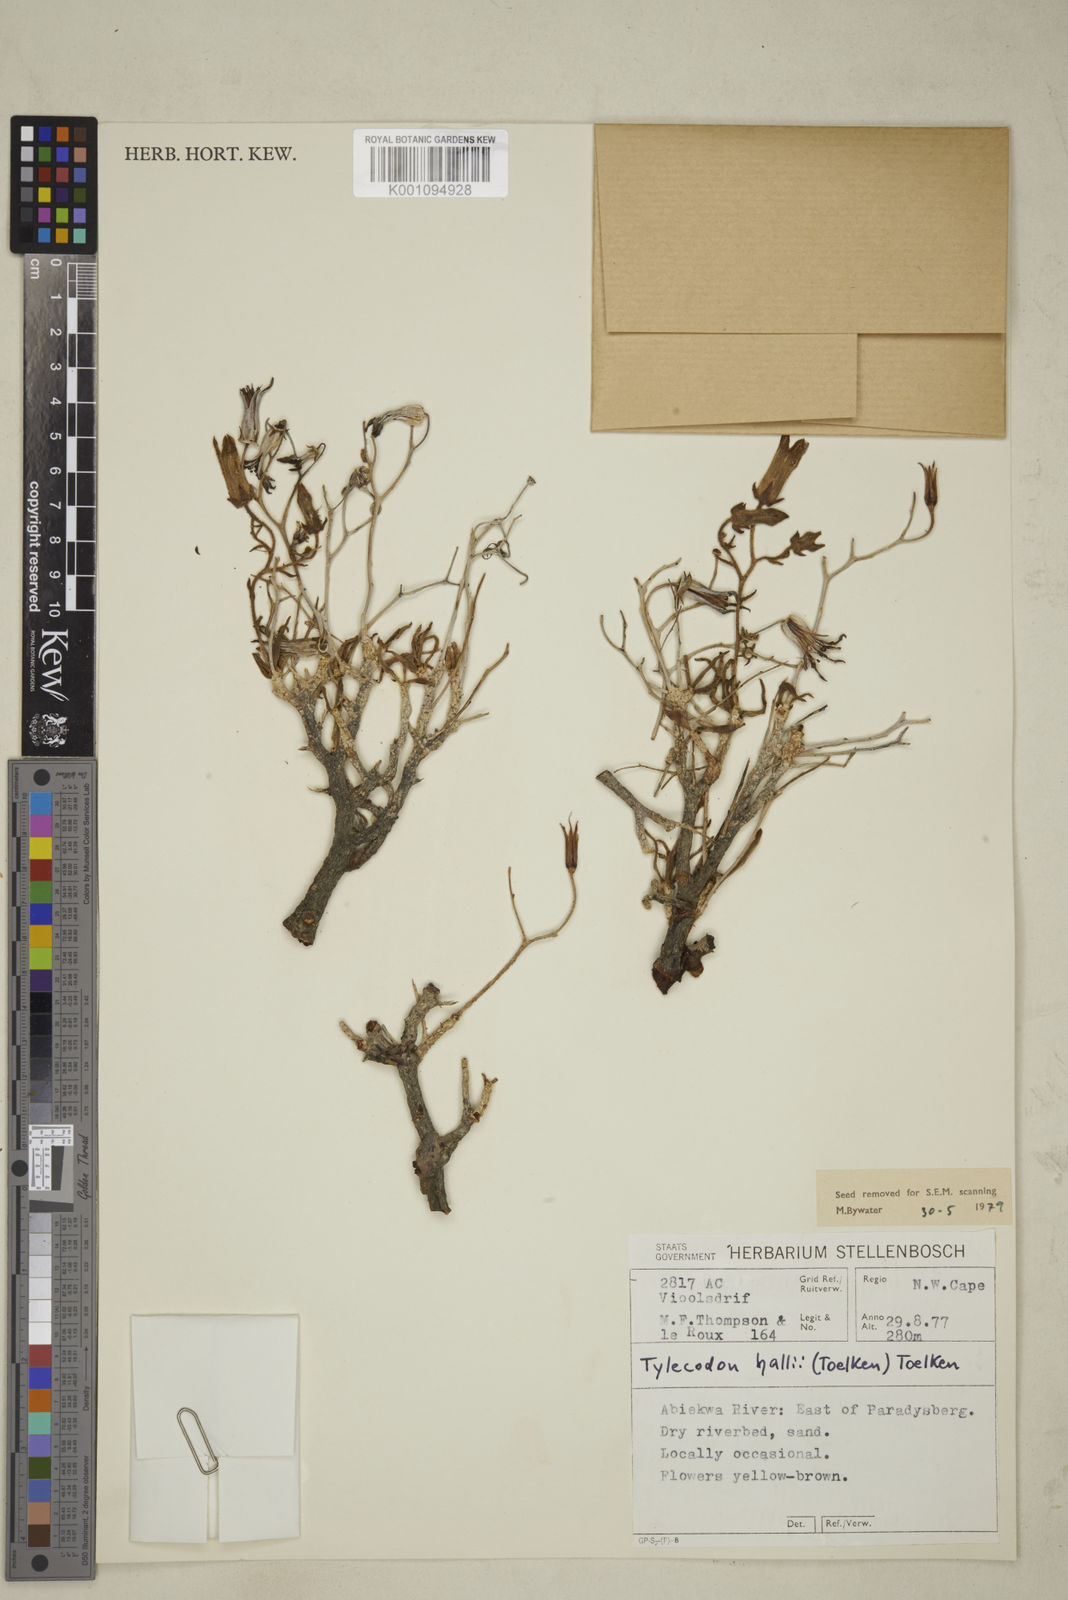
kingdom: Plantae
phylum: Tracheophyta
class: Magnoliopsida
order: Saxifragales
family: Crassulaceae
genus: Tylecodon
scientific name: Tylecodon hallii
